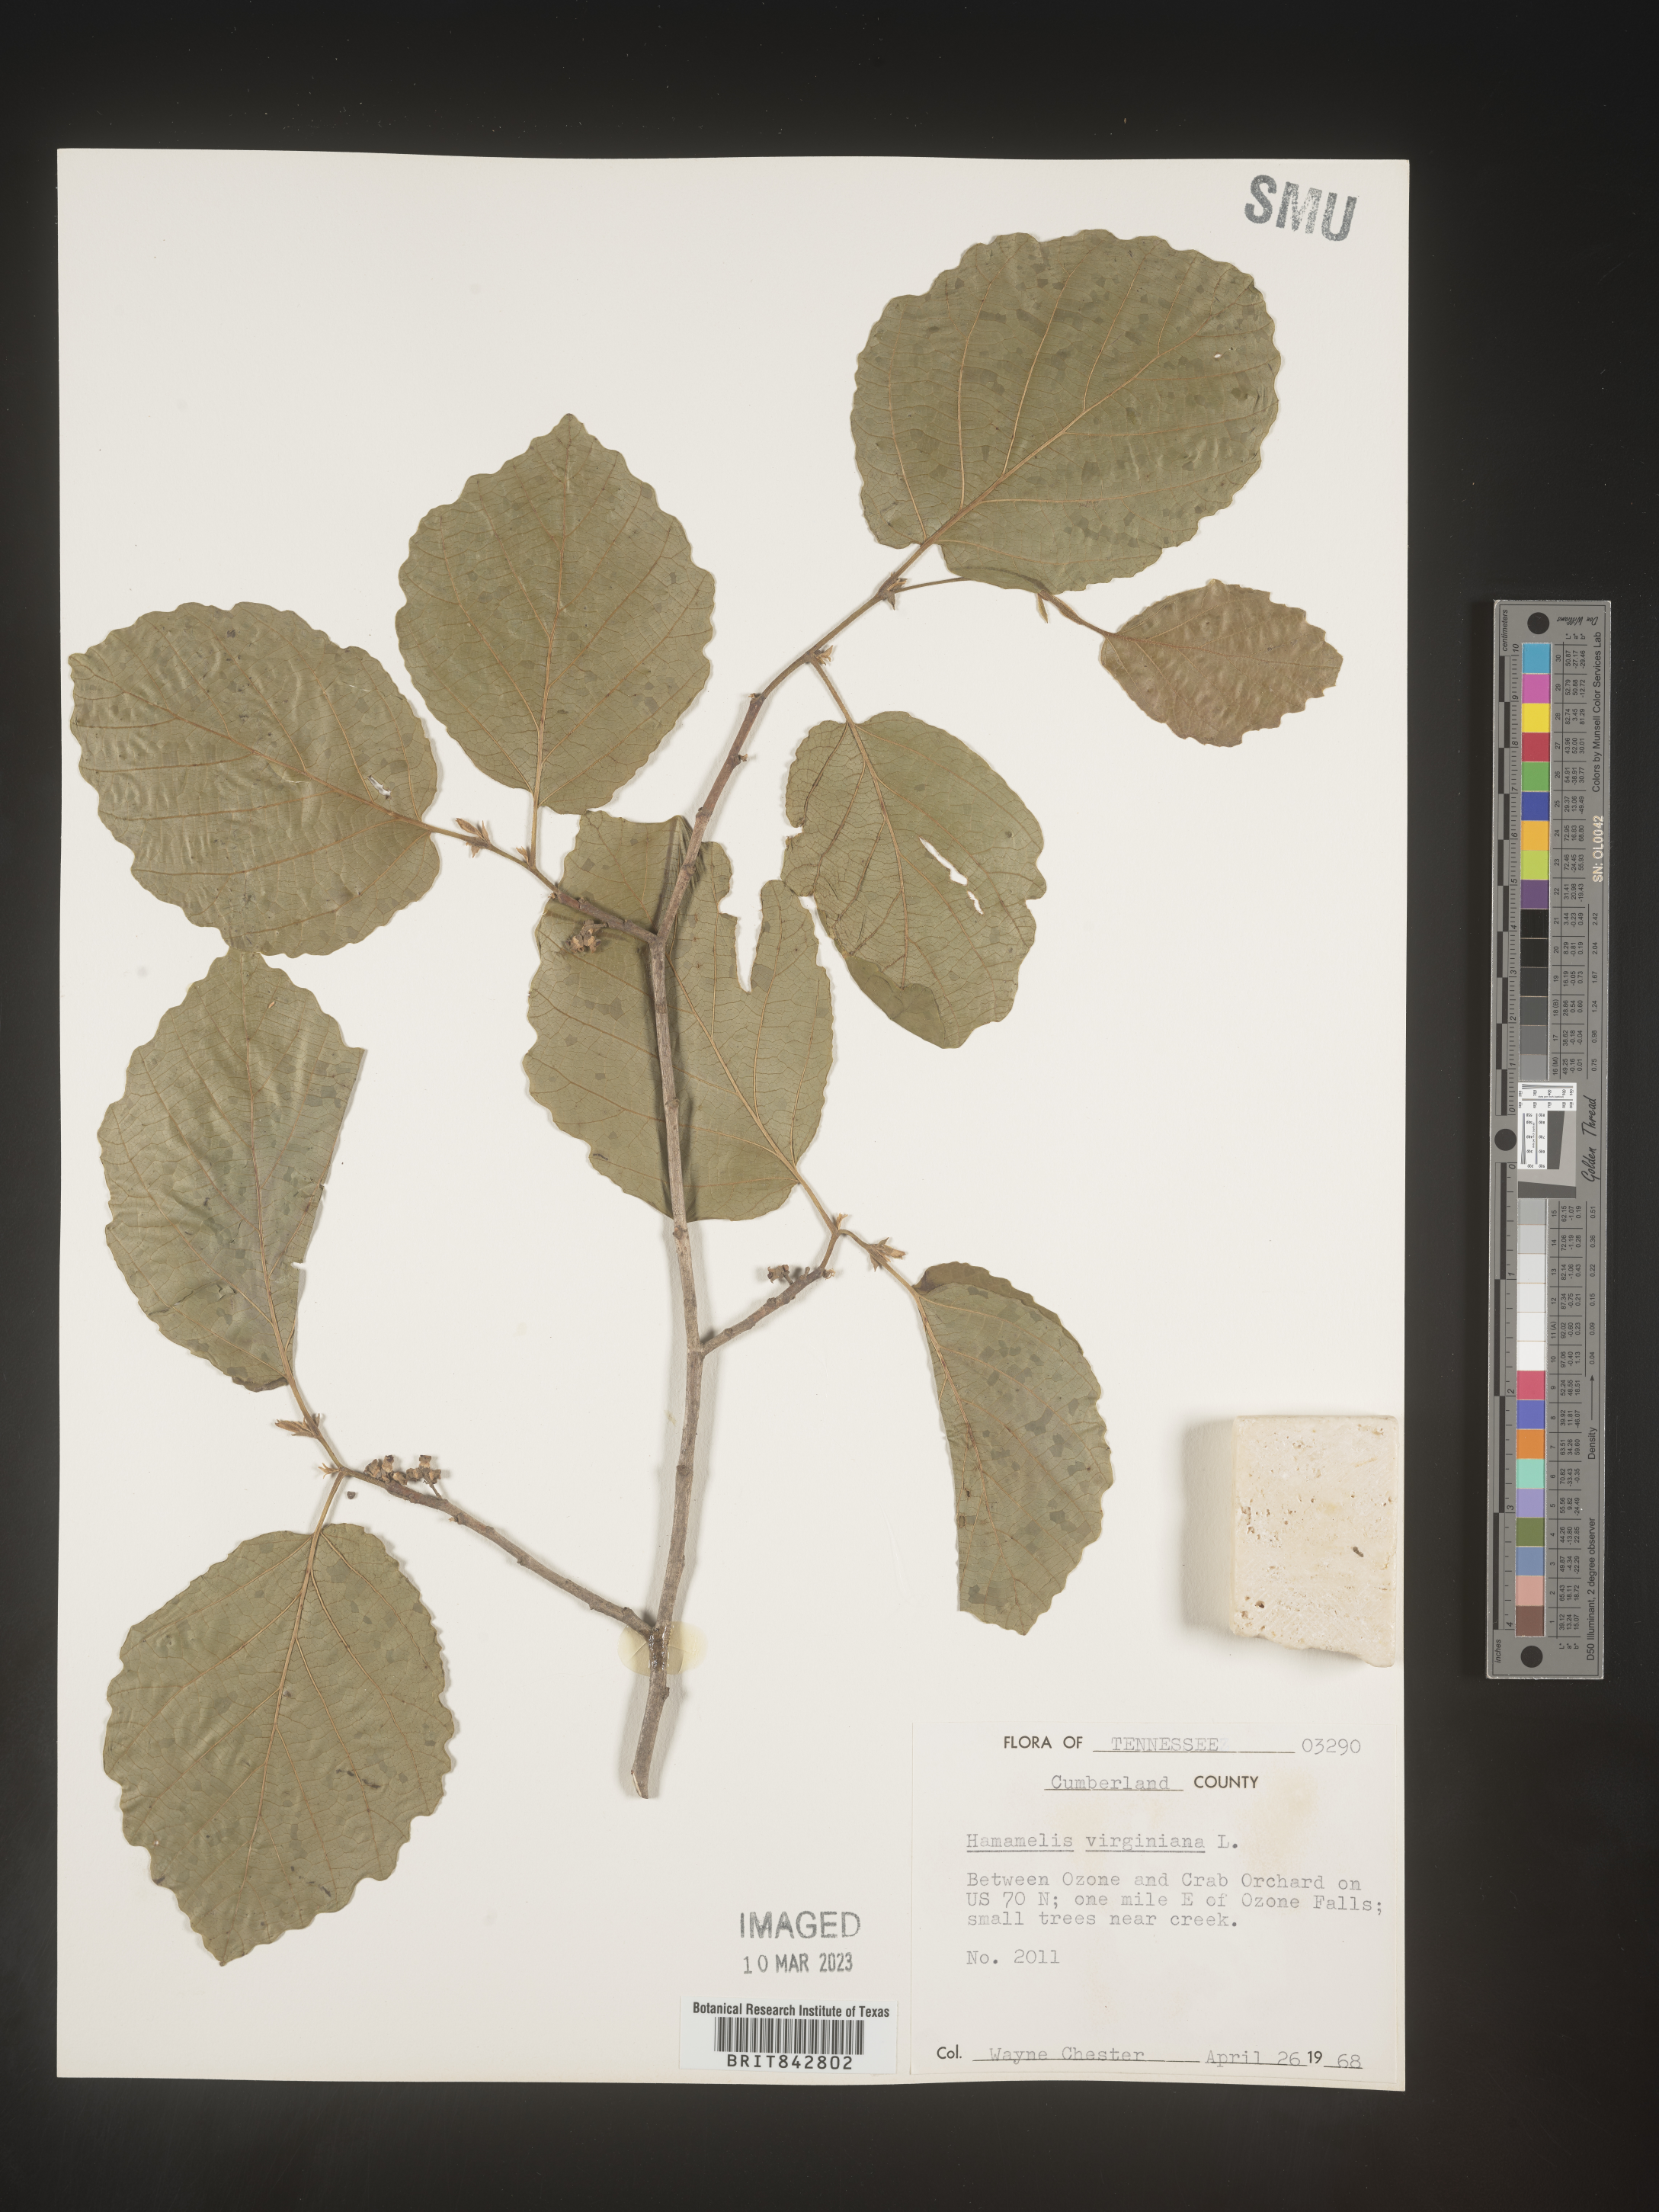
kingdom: Plantae
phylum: Tracheophyta
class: Magnoliopsida
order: Saxifragales
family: Hamamelidaceae
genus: Hamamelis
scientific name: Hamamelis virginiana
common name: Witch-hazel
